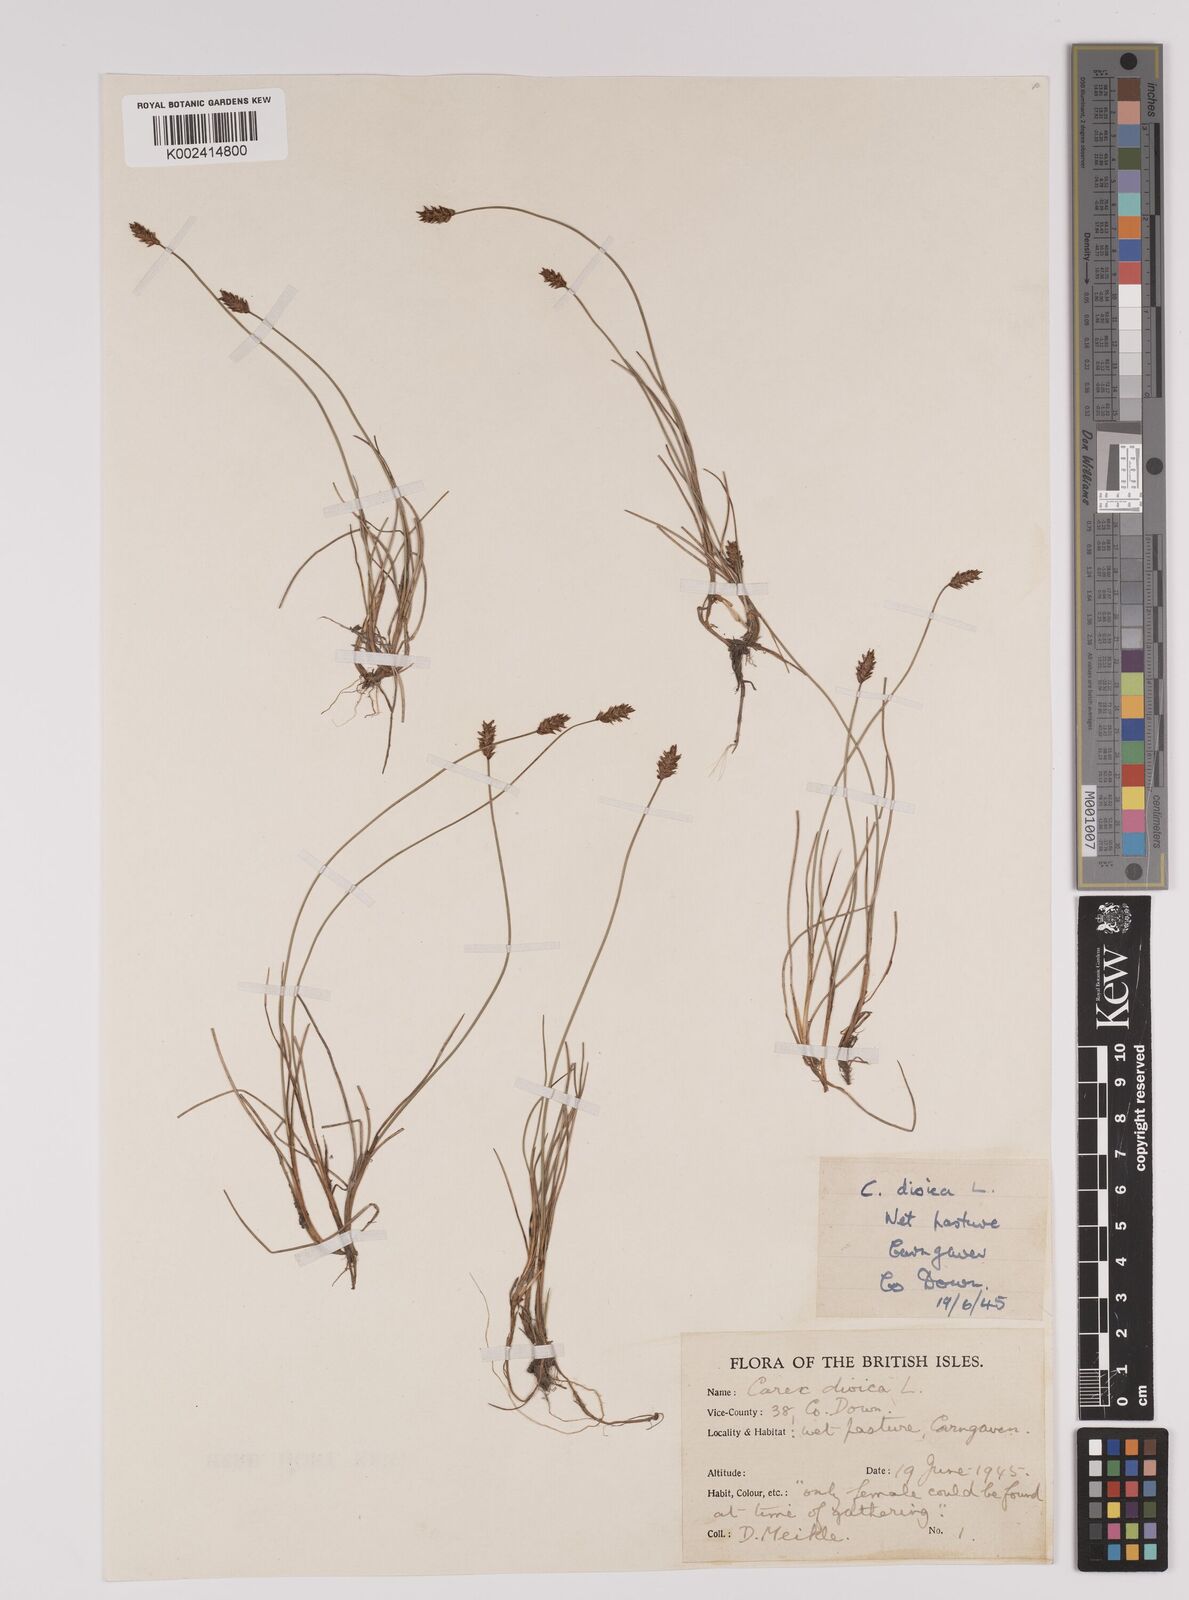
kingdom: Plantae
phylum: Tracheophyta
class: Liliopsida
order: Poales
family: Cyperaceae
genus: Carex
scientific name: Carex dioica
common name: Dioecious sedge
